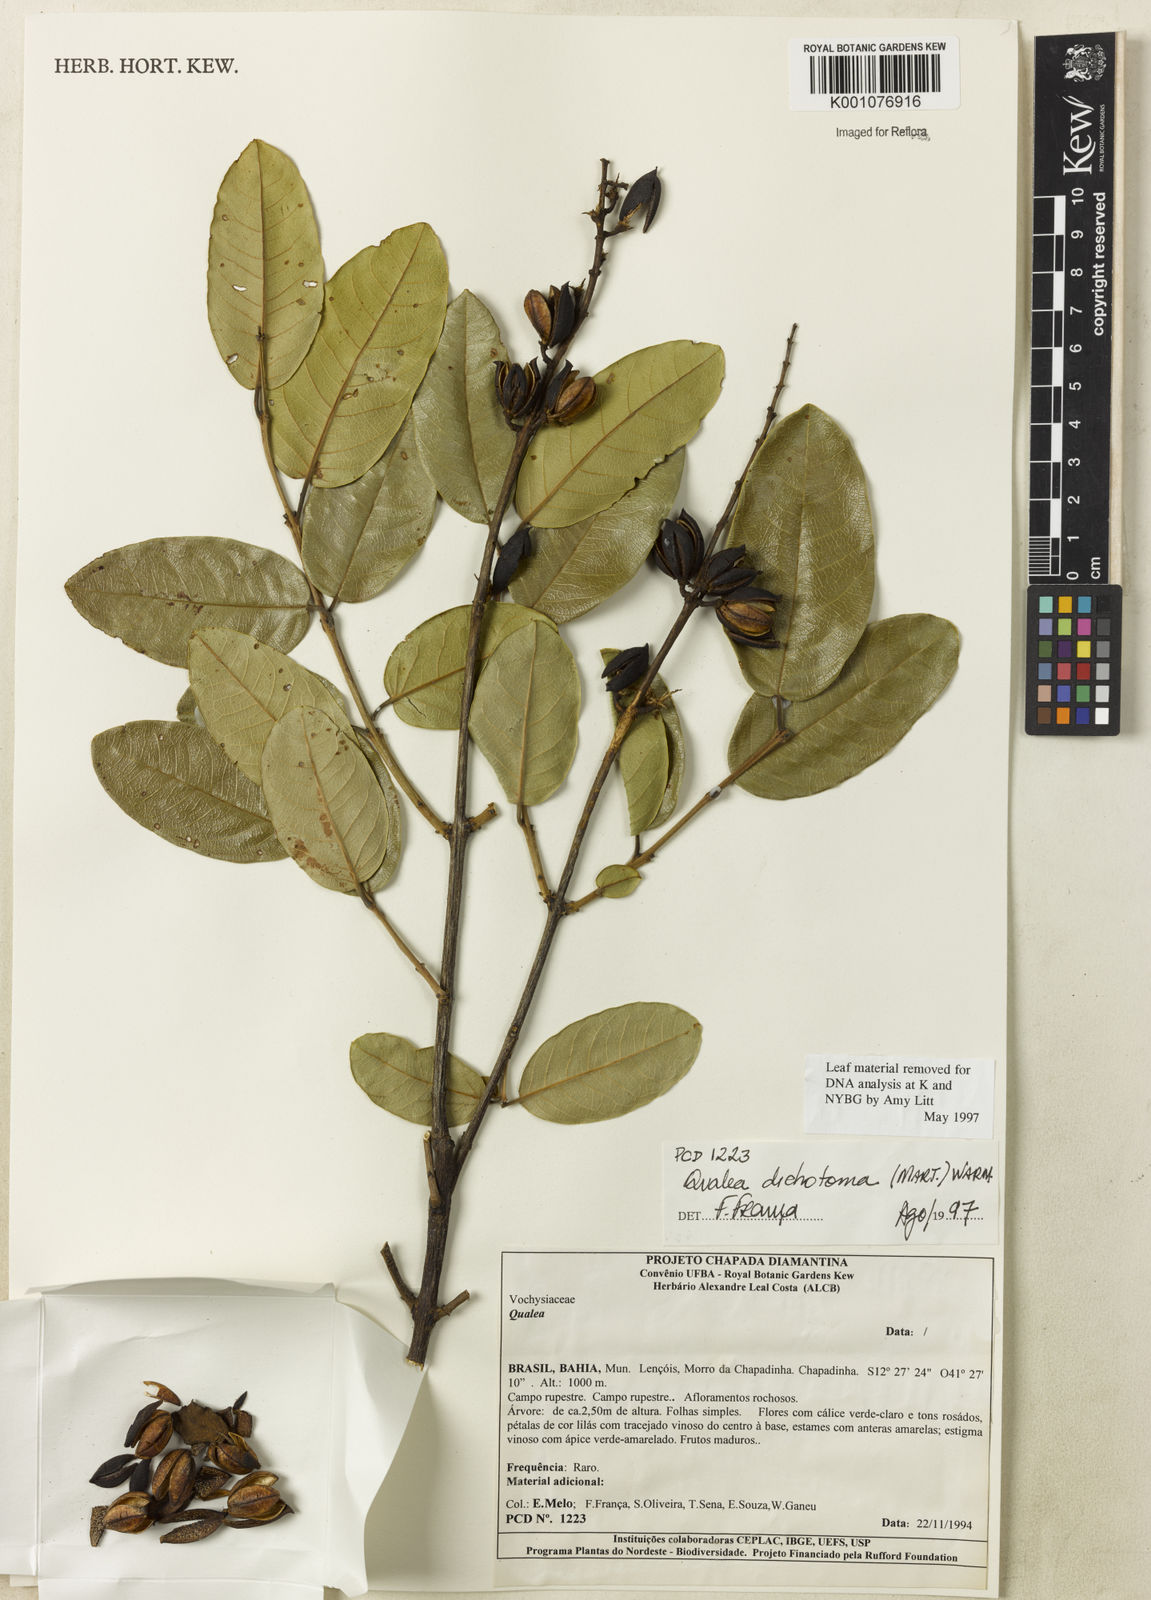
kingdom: Plantae
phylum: Tracheophyta
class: Magnoliopsida
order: Myrtales
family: Vochysiaceae
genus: Qualea
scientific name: Qualea
